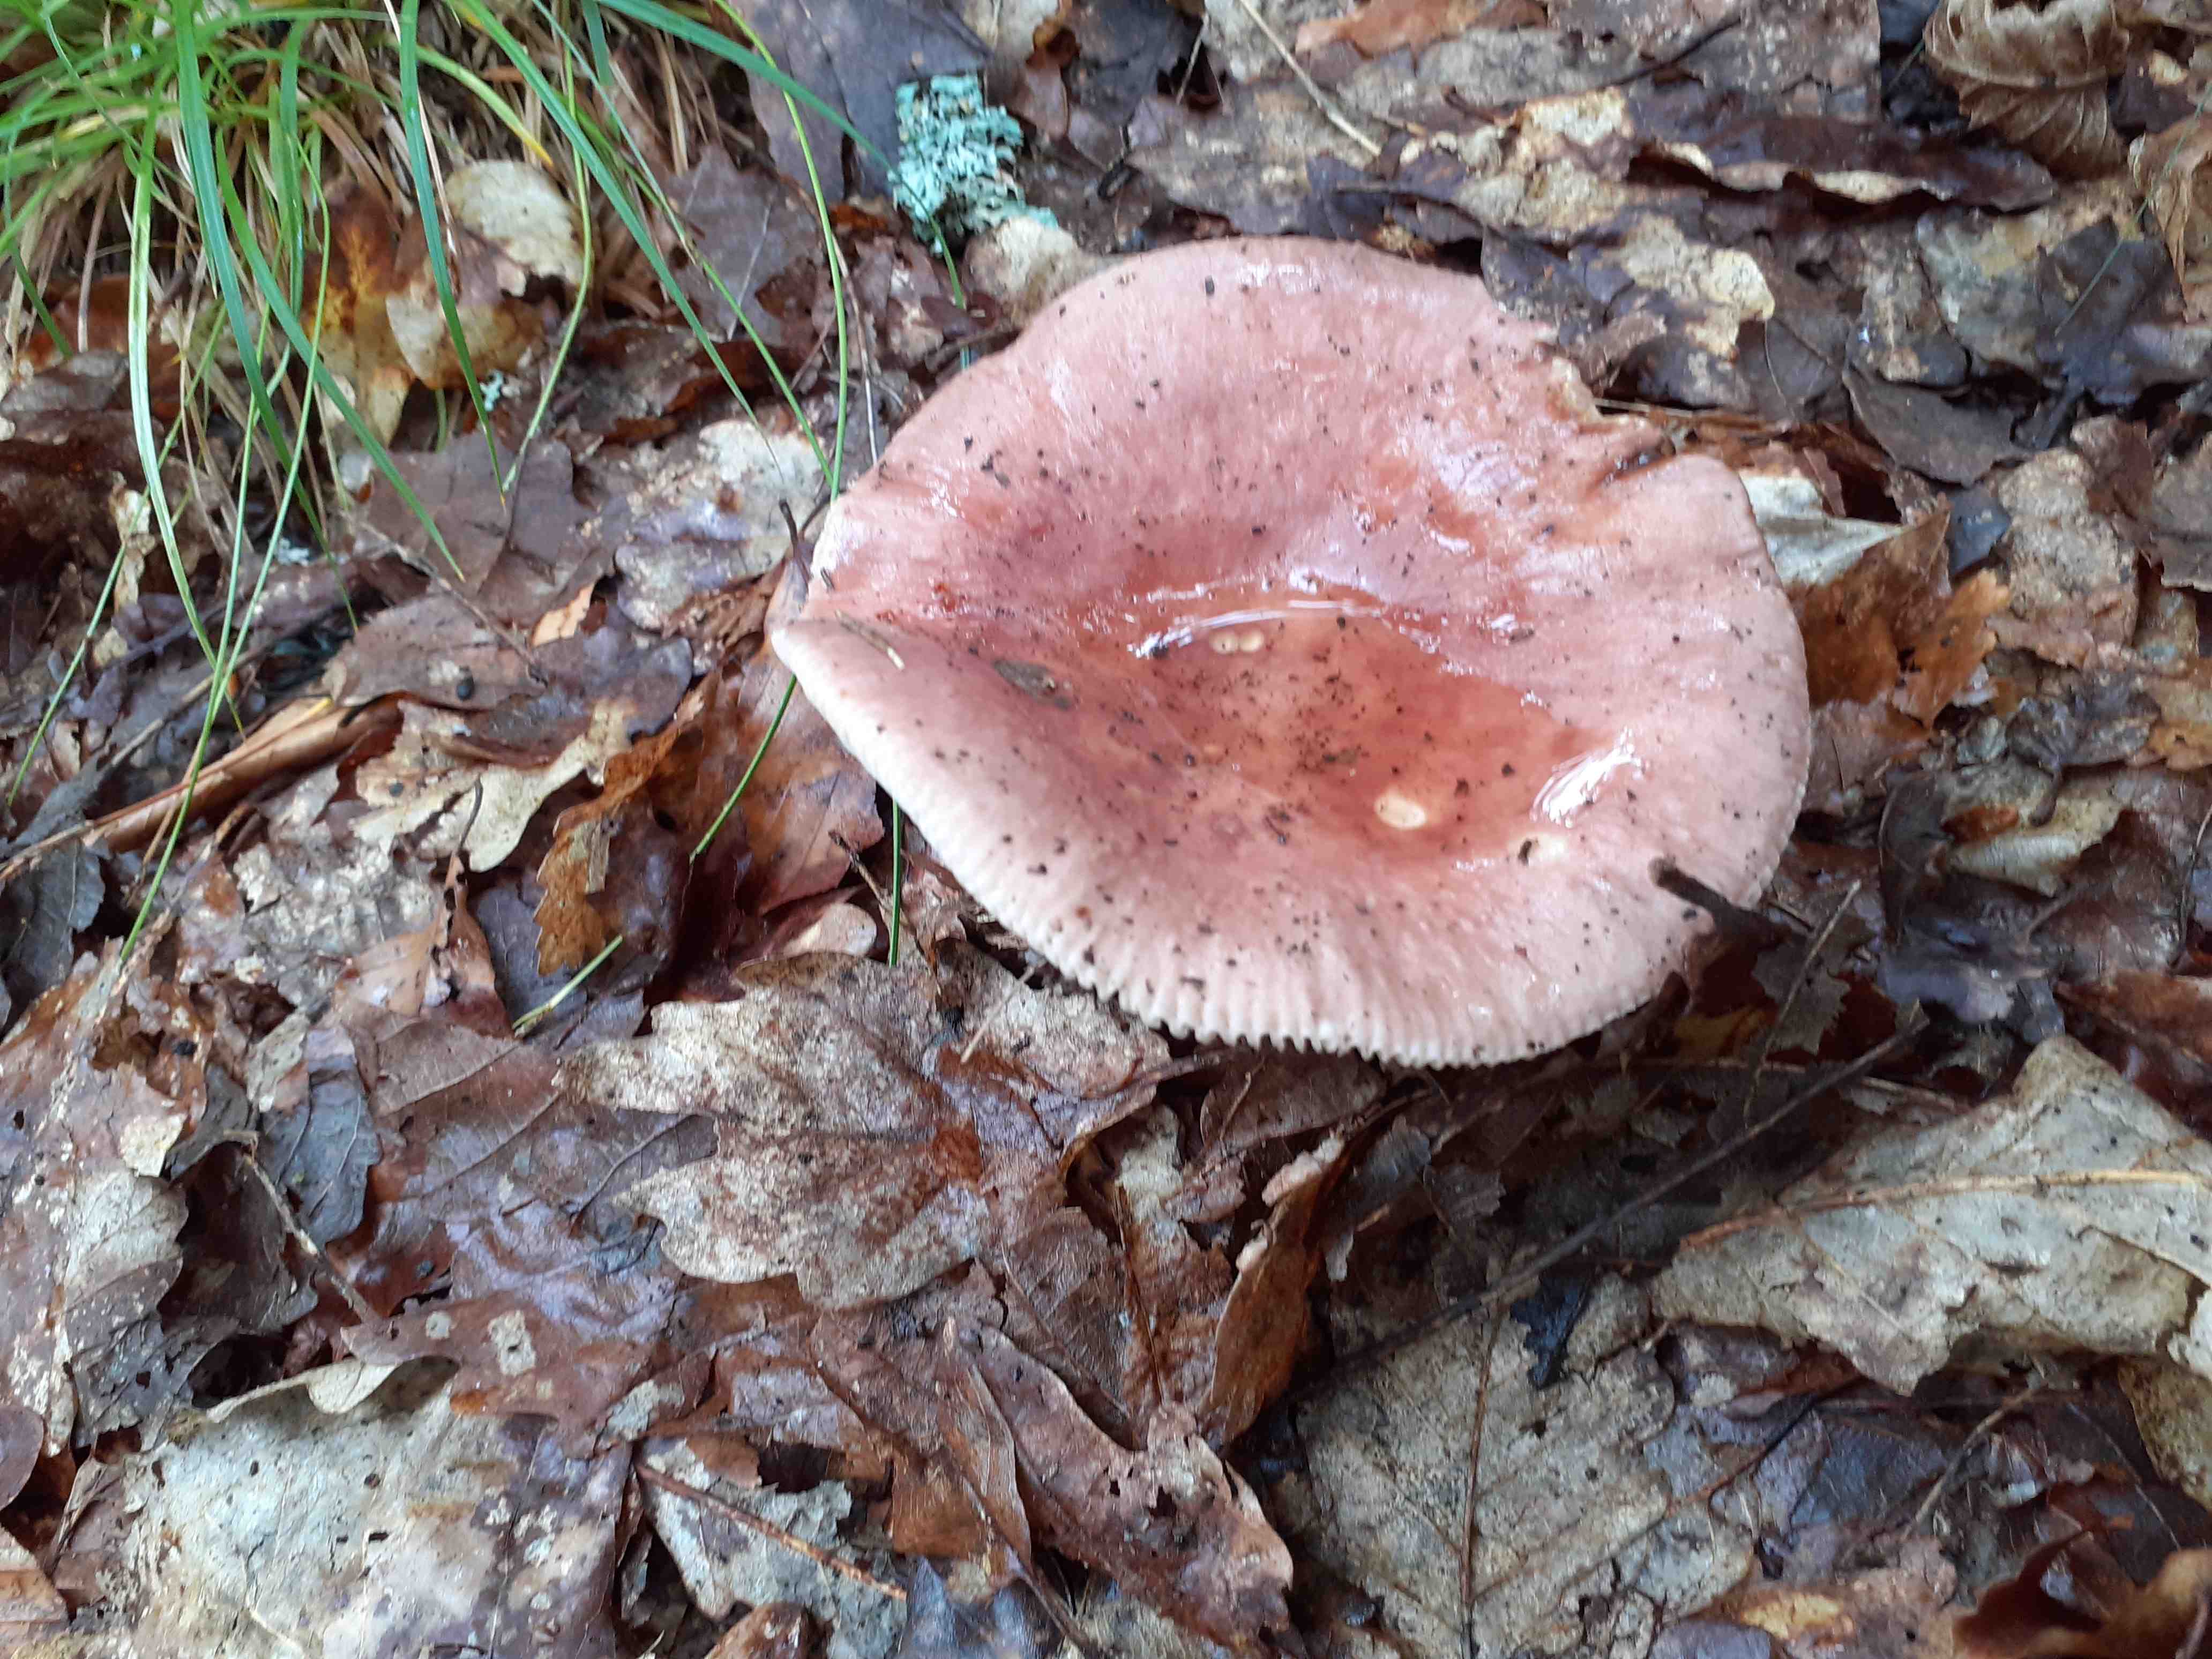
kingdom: Fungi
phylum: Basidiomycota
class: Agaricomycetes
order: Russulales
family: Russulaceae
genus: Russula
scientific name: Russula
